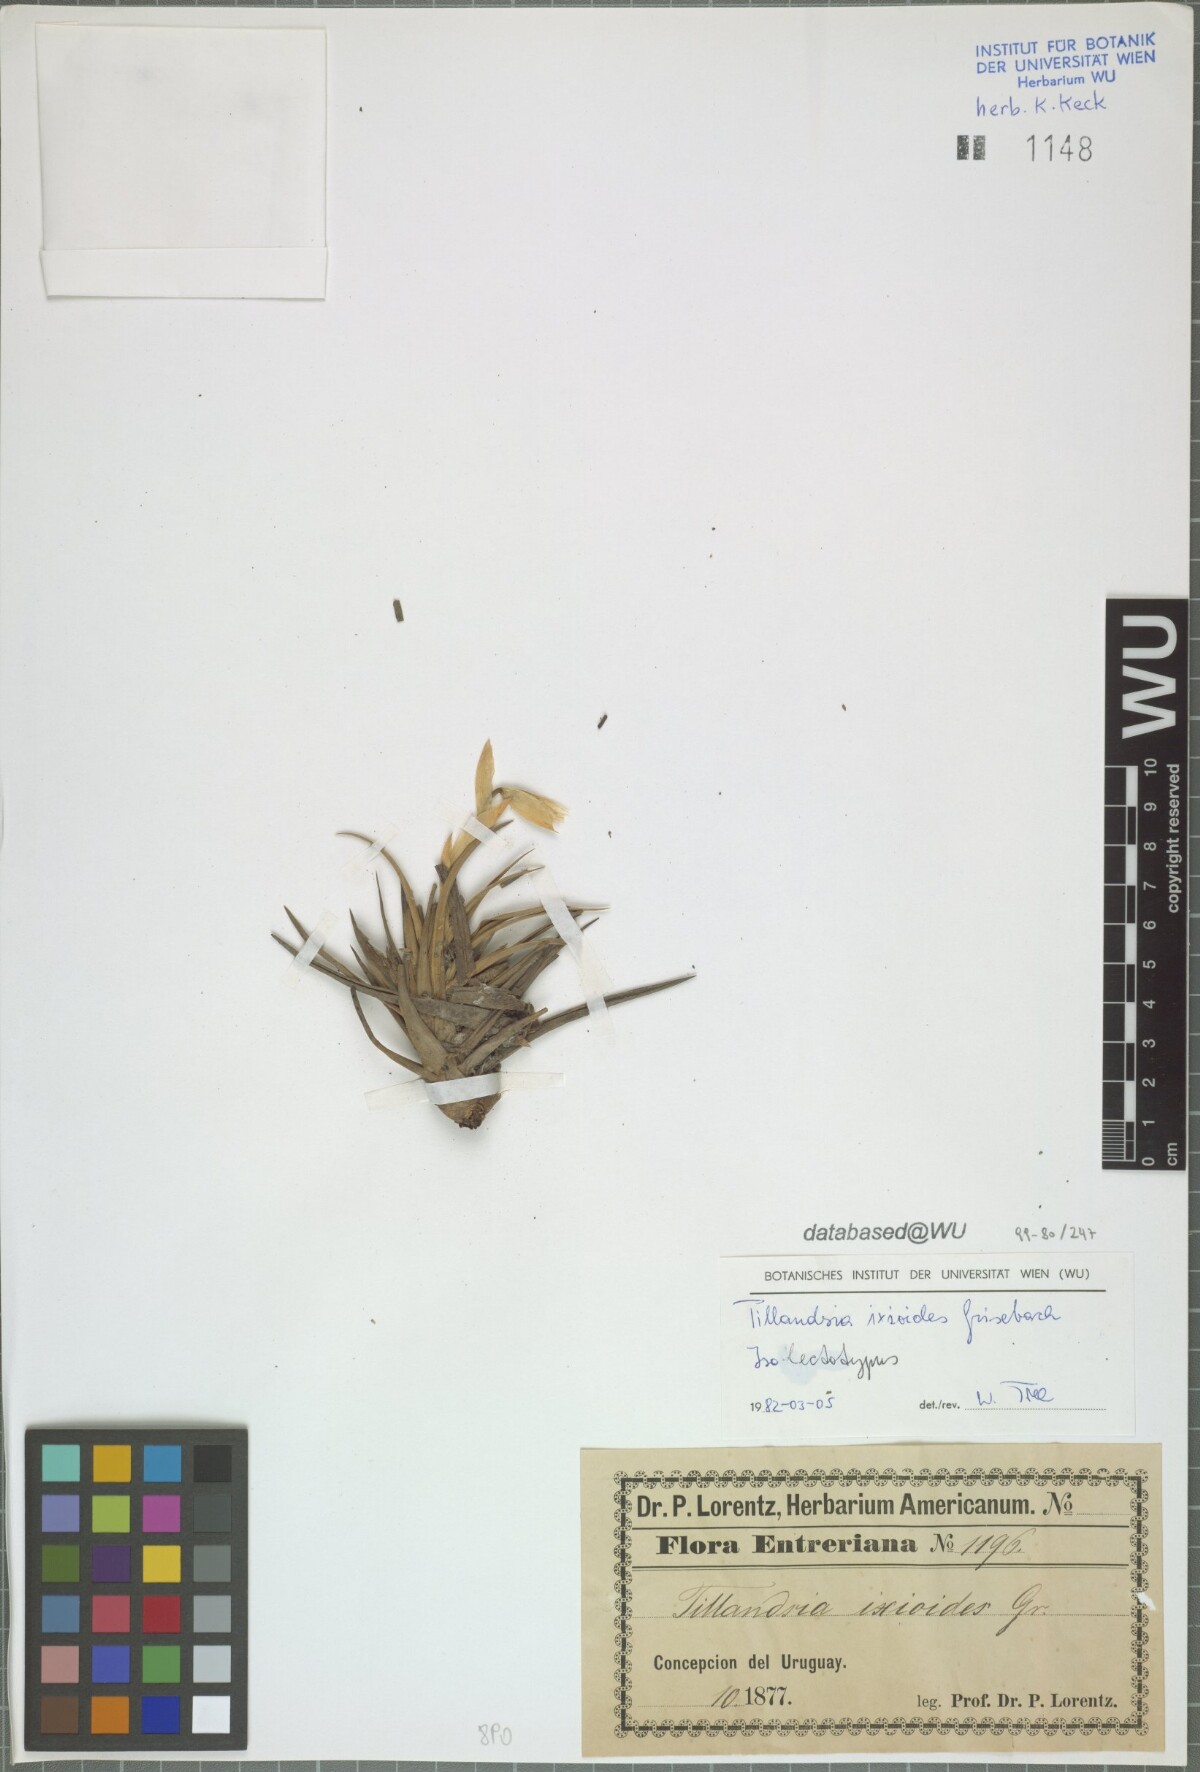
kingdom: Plantae
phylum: Tracheophyta
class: Liliopsida
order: Poales
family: Bromeliaceae
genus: Tillandsia
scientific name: Tillandsia ixioides
